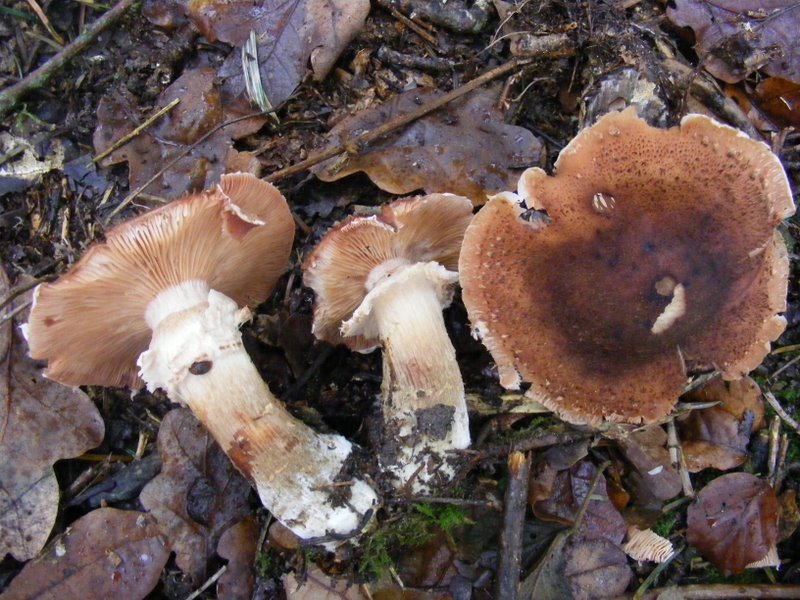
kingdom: Fungi
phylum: Basidiomycota
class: Agaricomycetes
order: Agaricales
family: Physalacriaceae
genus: Armillaria
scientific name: Armillaria ostoyae
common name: mørk honningsvamp
